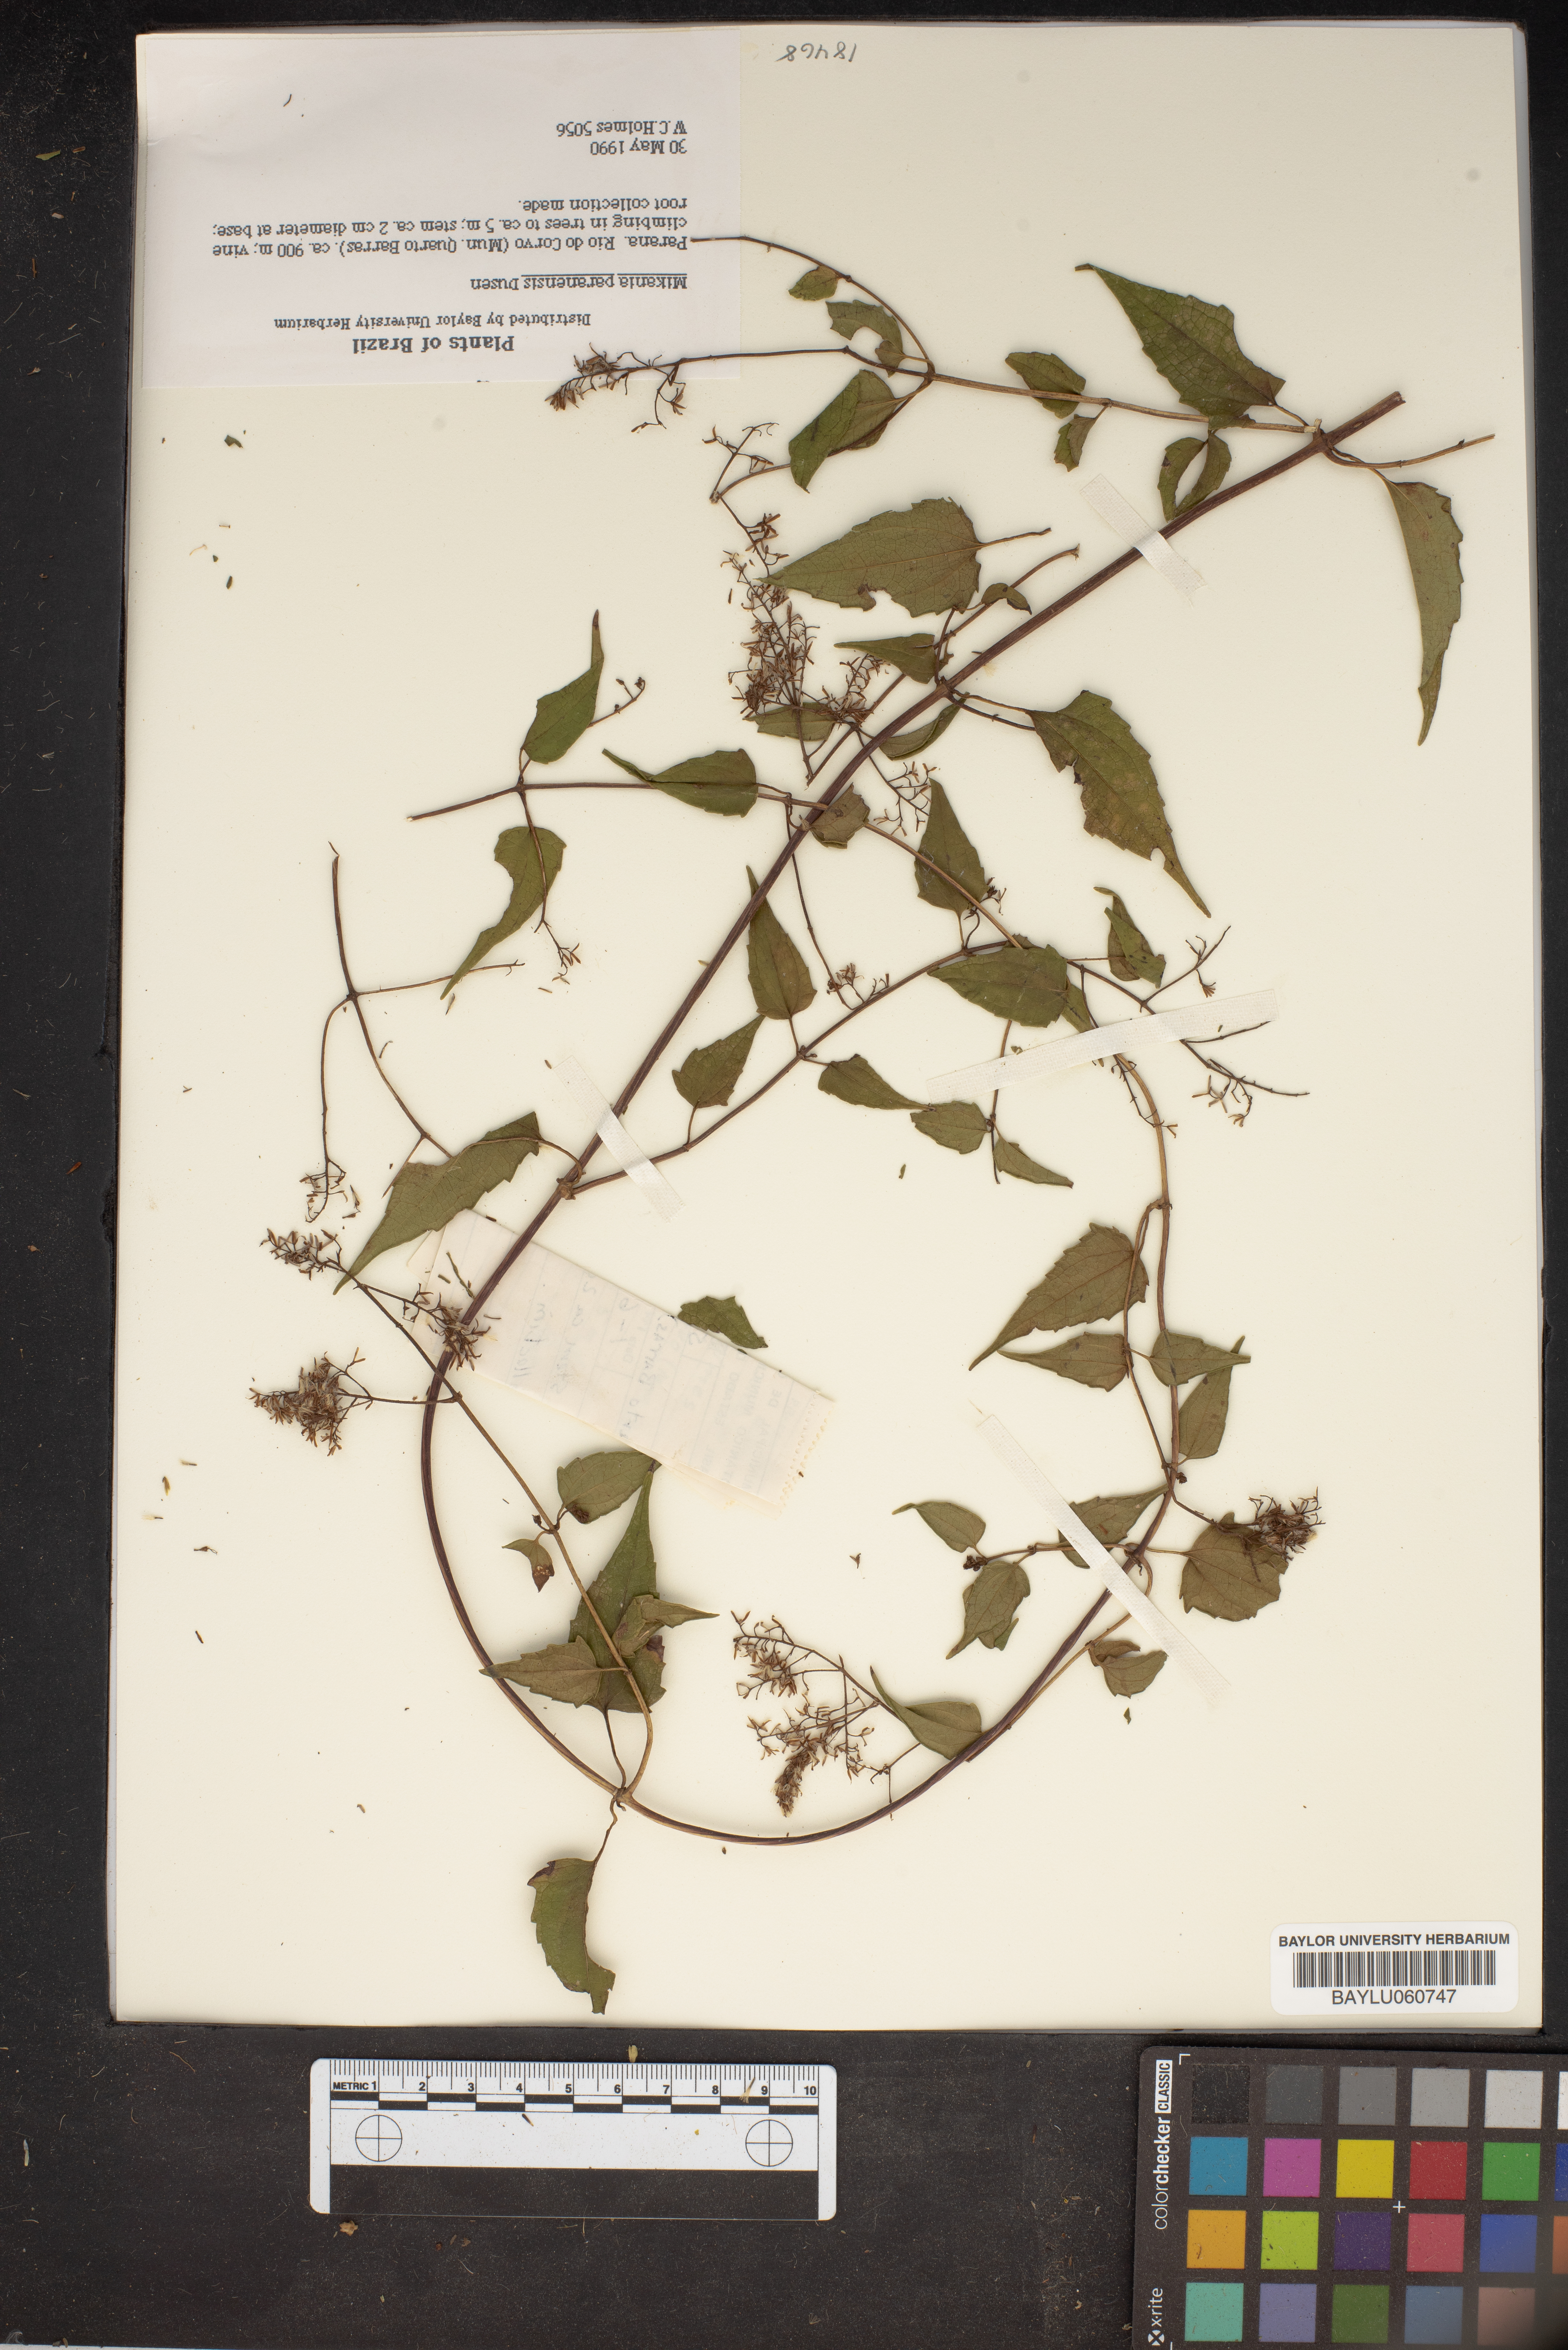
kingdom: Plantae
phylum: Tracheophyta
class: Magnoliopsida
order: Asterales
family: Asteraceae
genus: Mikania
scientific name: Mikania paranensis
